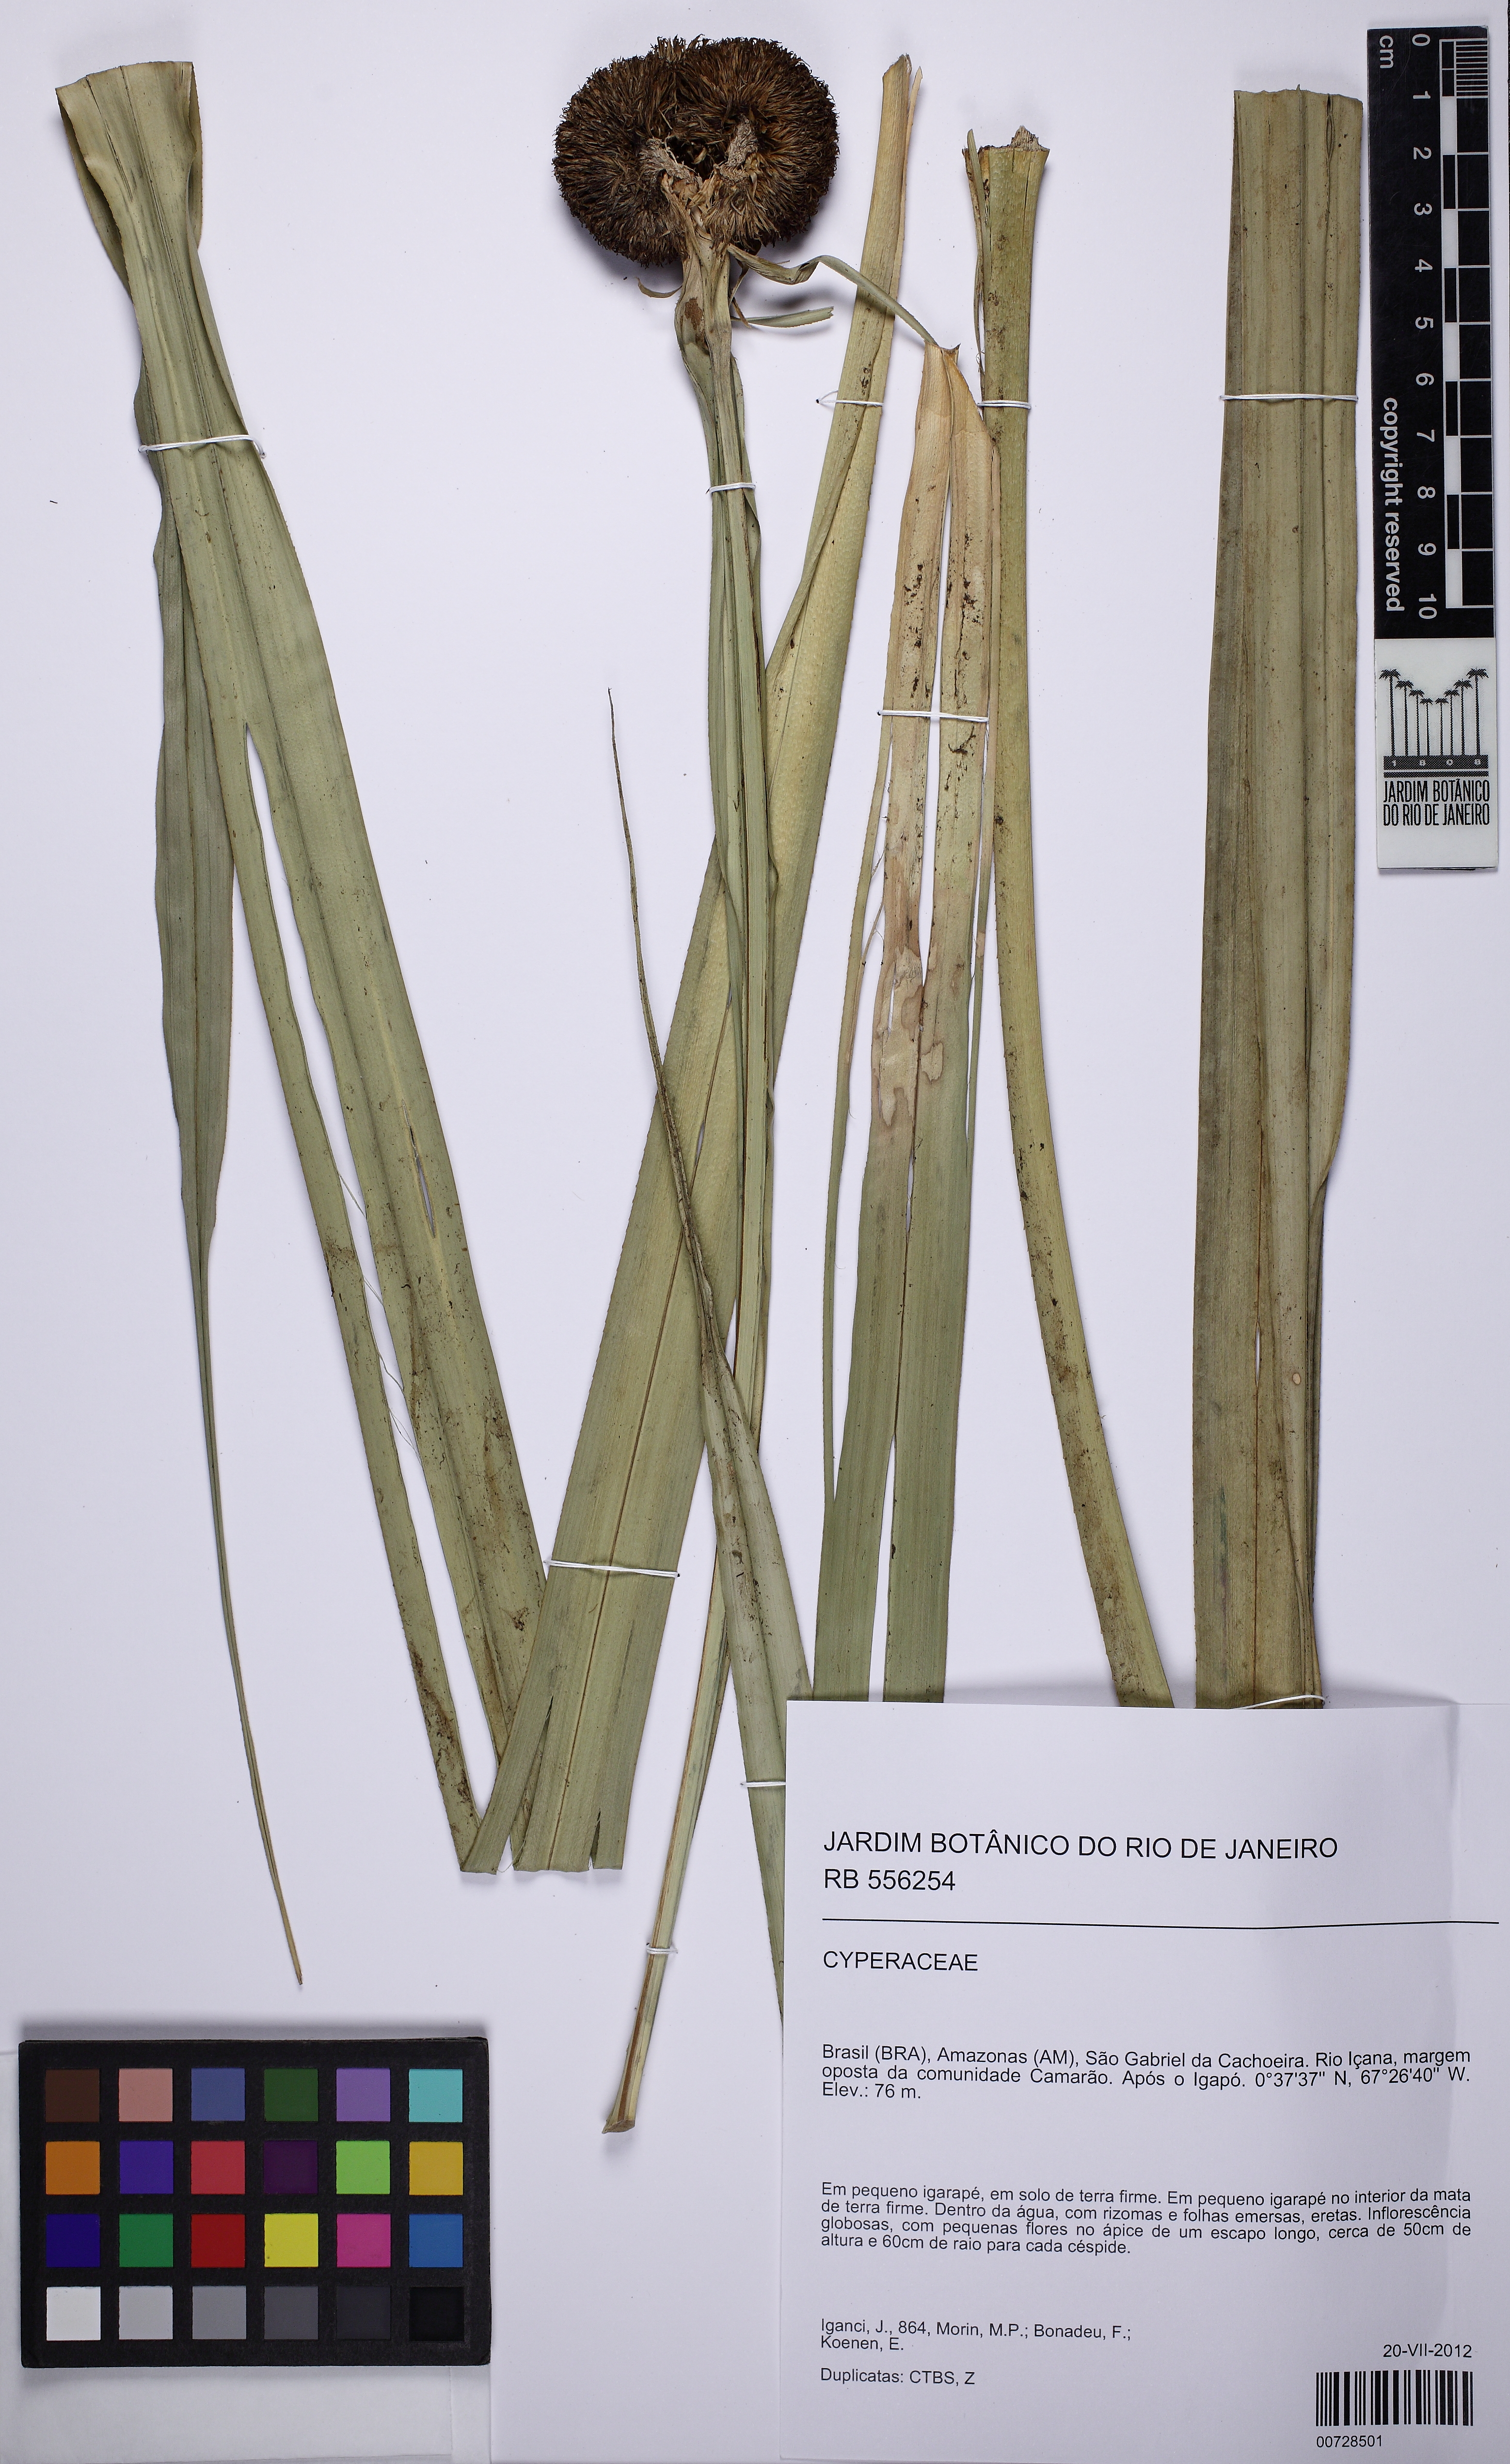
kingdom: Plantae
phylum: Tracheophyta
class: Liliopsida
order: Poales
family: Thurniaceae
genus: Thurnia
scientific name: Thurnia sphaerocephala
